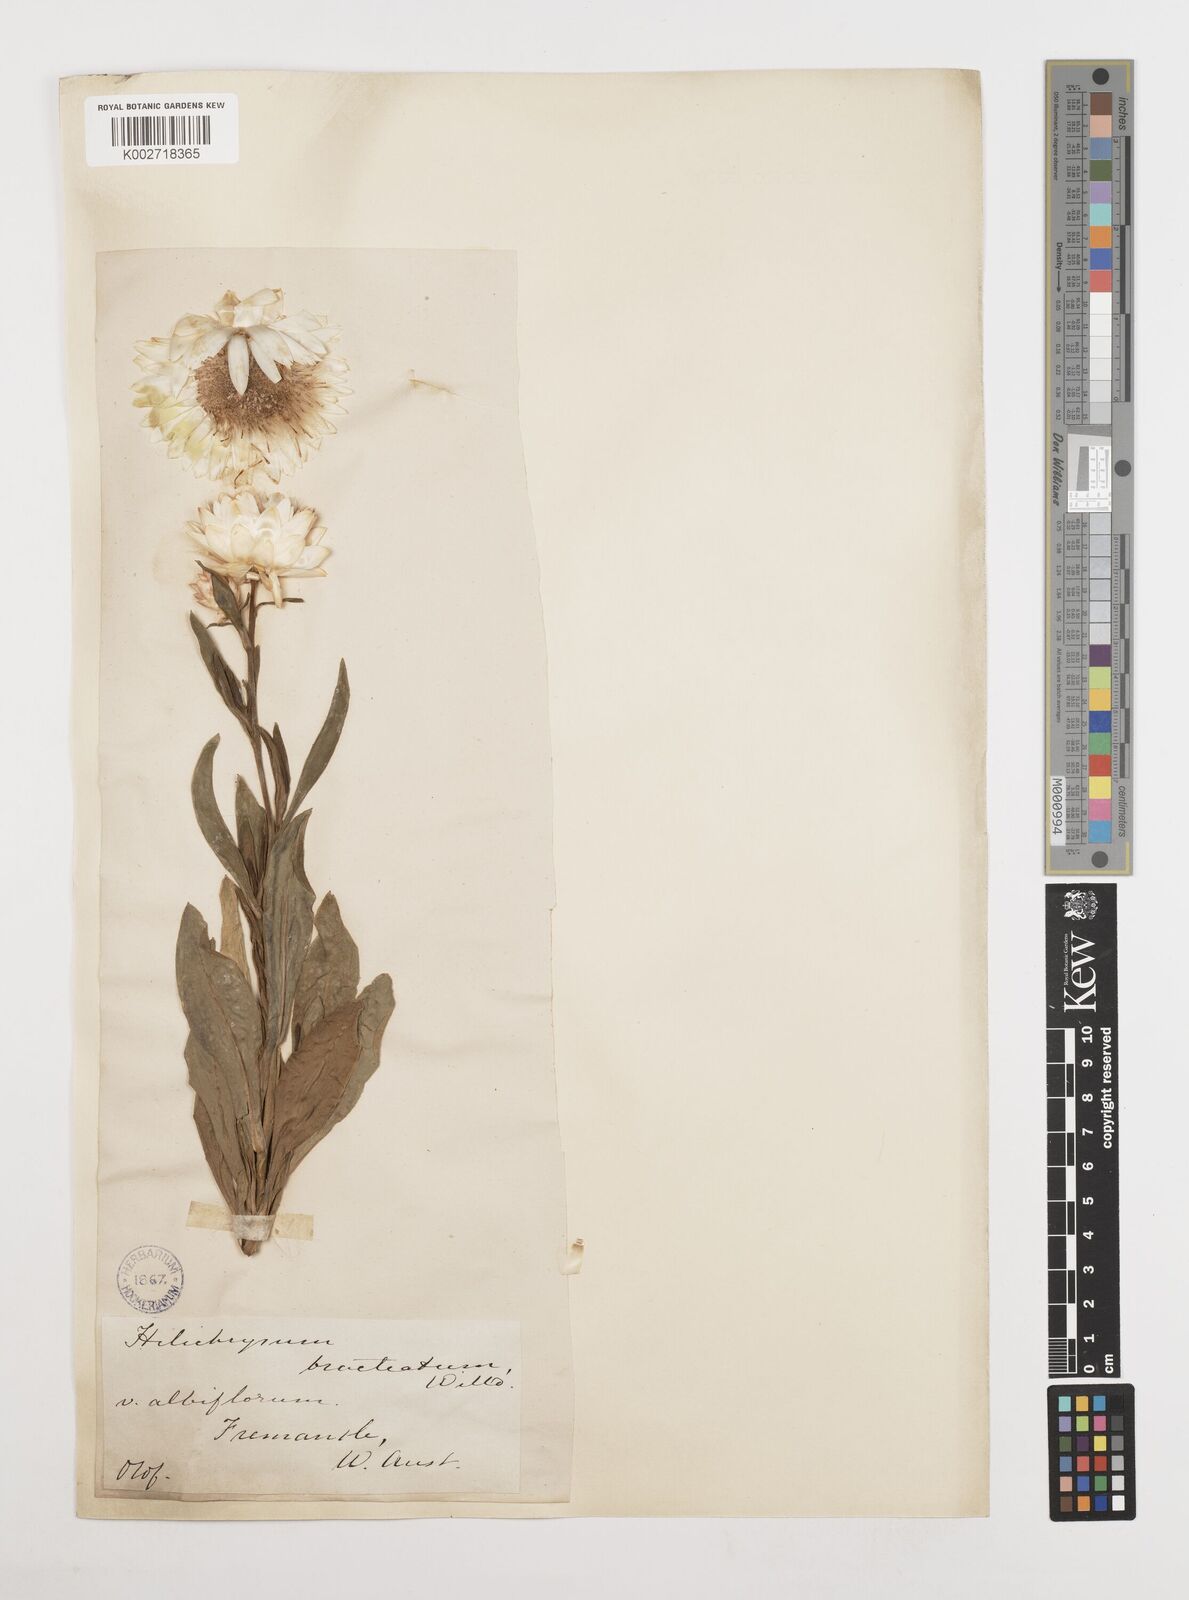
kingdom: Plantae
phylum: Tracheophyta
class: Magnoliopsida
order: Asterales
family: Asteraceae
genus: Xerochrysum
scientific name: Xerochrysum bracteatum
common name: Bracted strawflower
